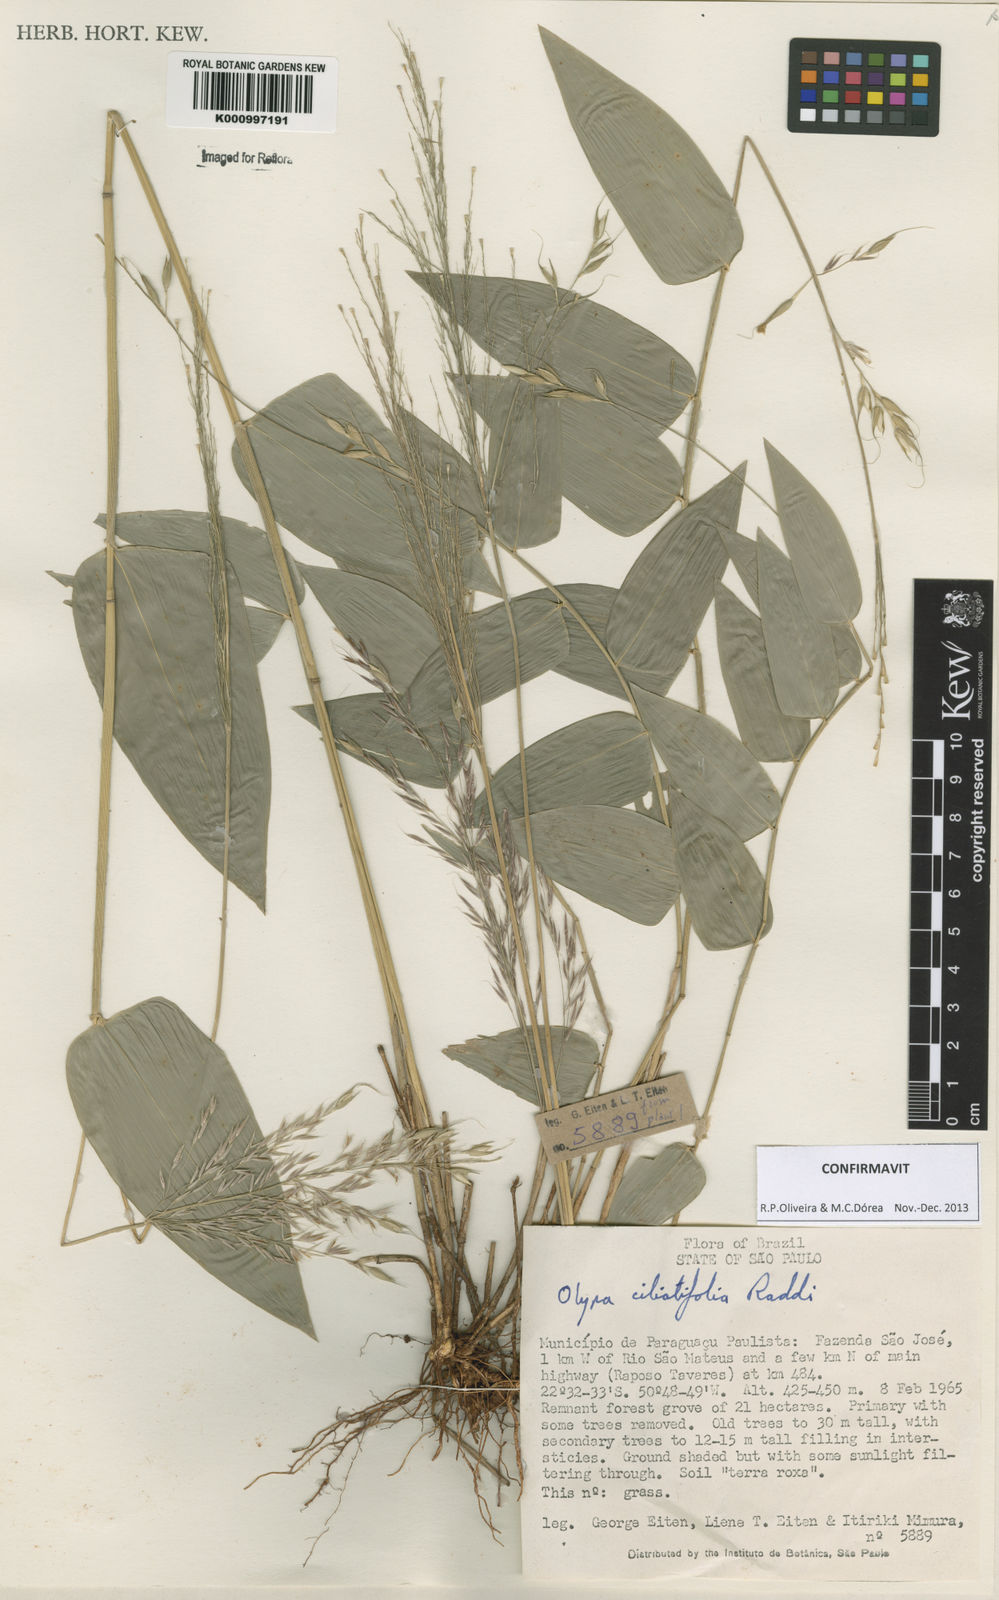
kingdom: Plantae
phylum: Tracheophyta
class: Liliopsida
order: Poales
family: Poaceae
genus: Olyra
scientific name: Olyra ciliatifolia
